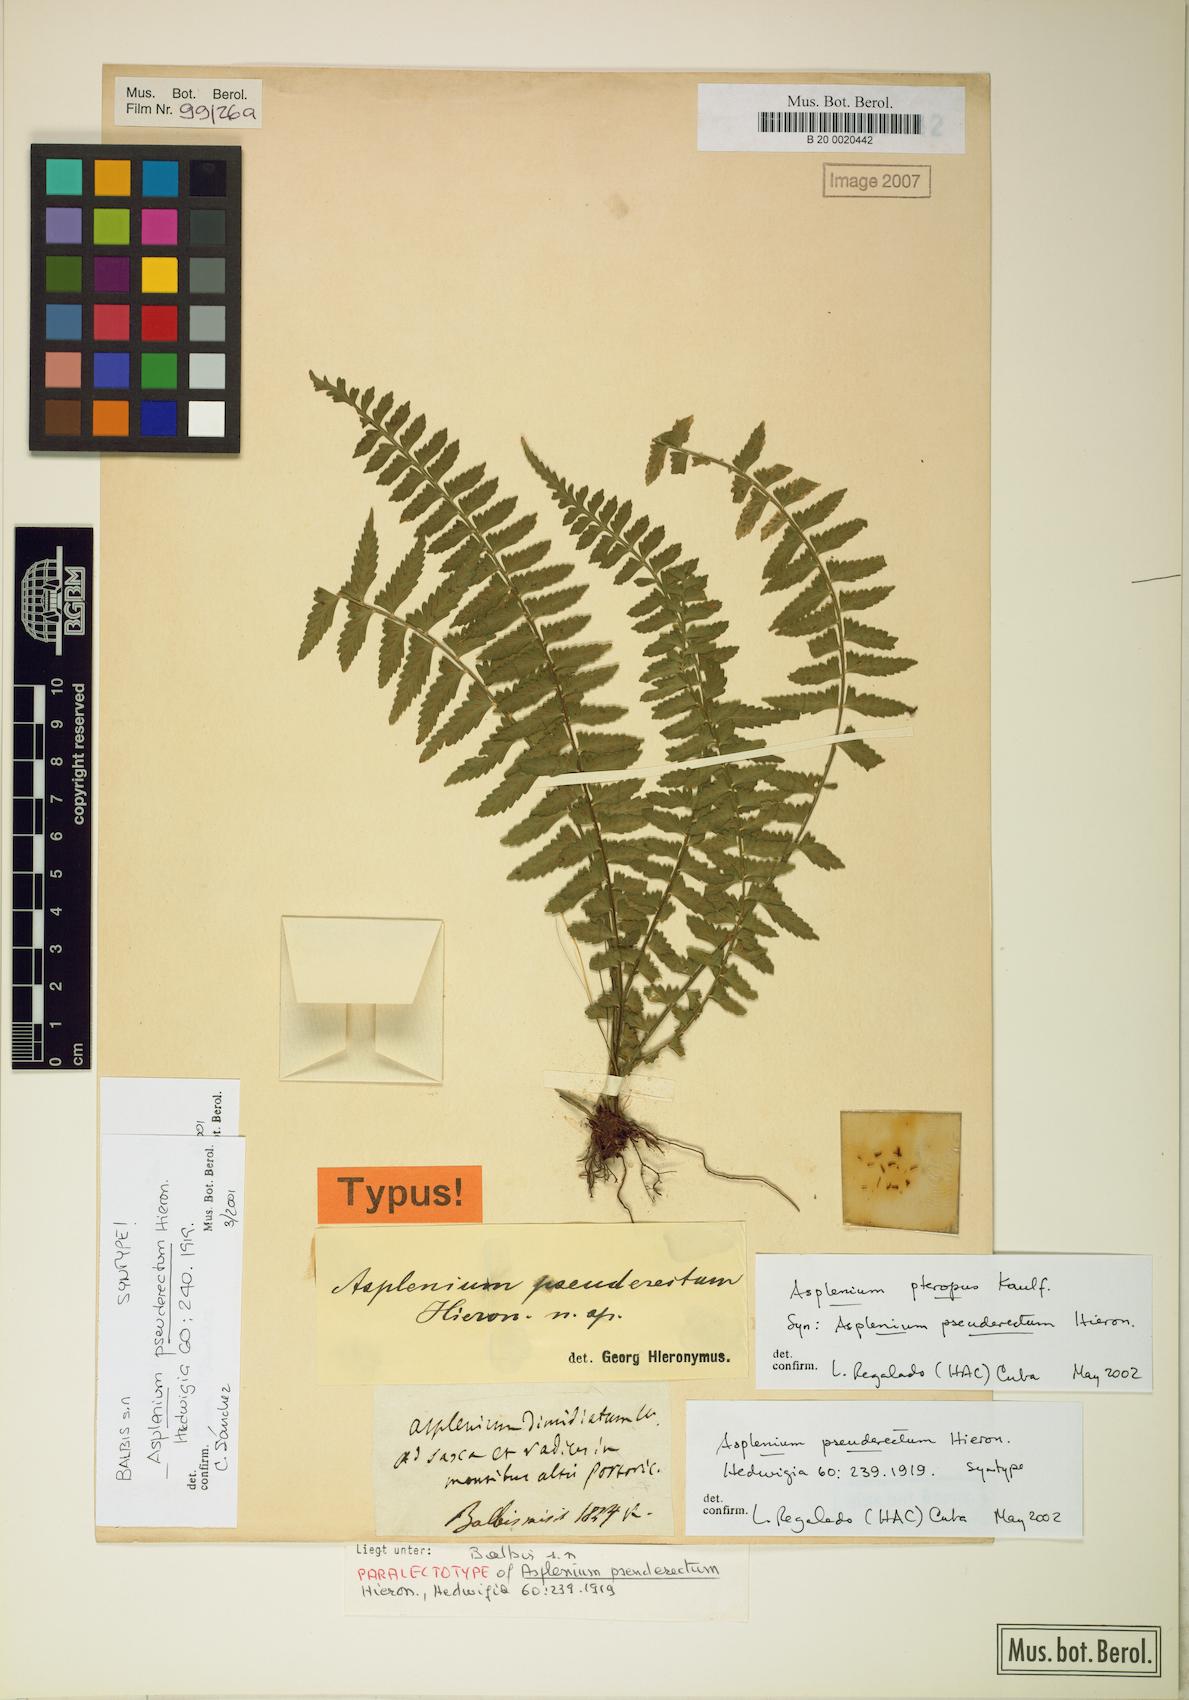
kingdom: Plantae
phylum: Tracheophyta
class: Polypodiopsida
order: Polypodiales
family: Aspleniaceae
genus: Asplenium
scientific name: Asplenium pteropus
